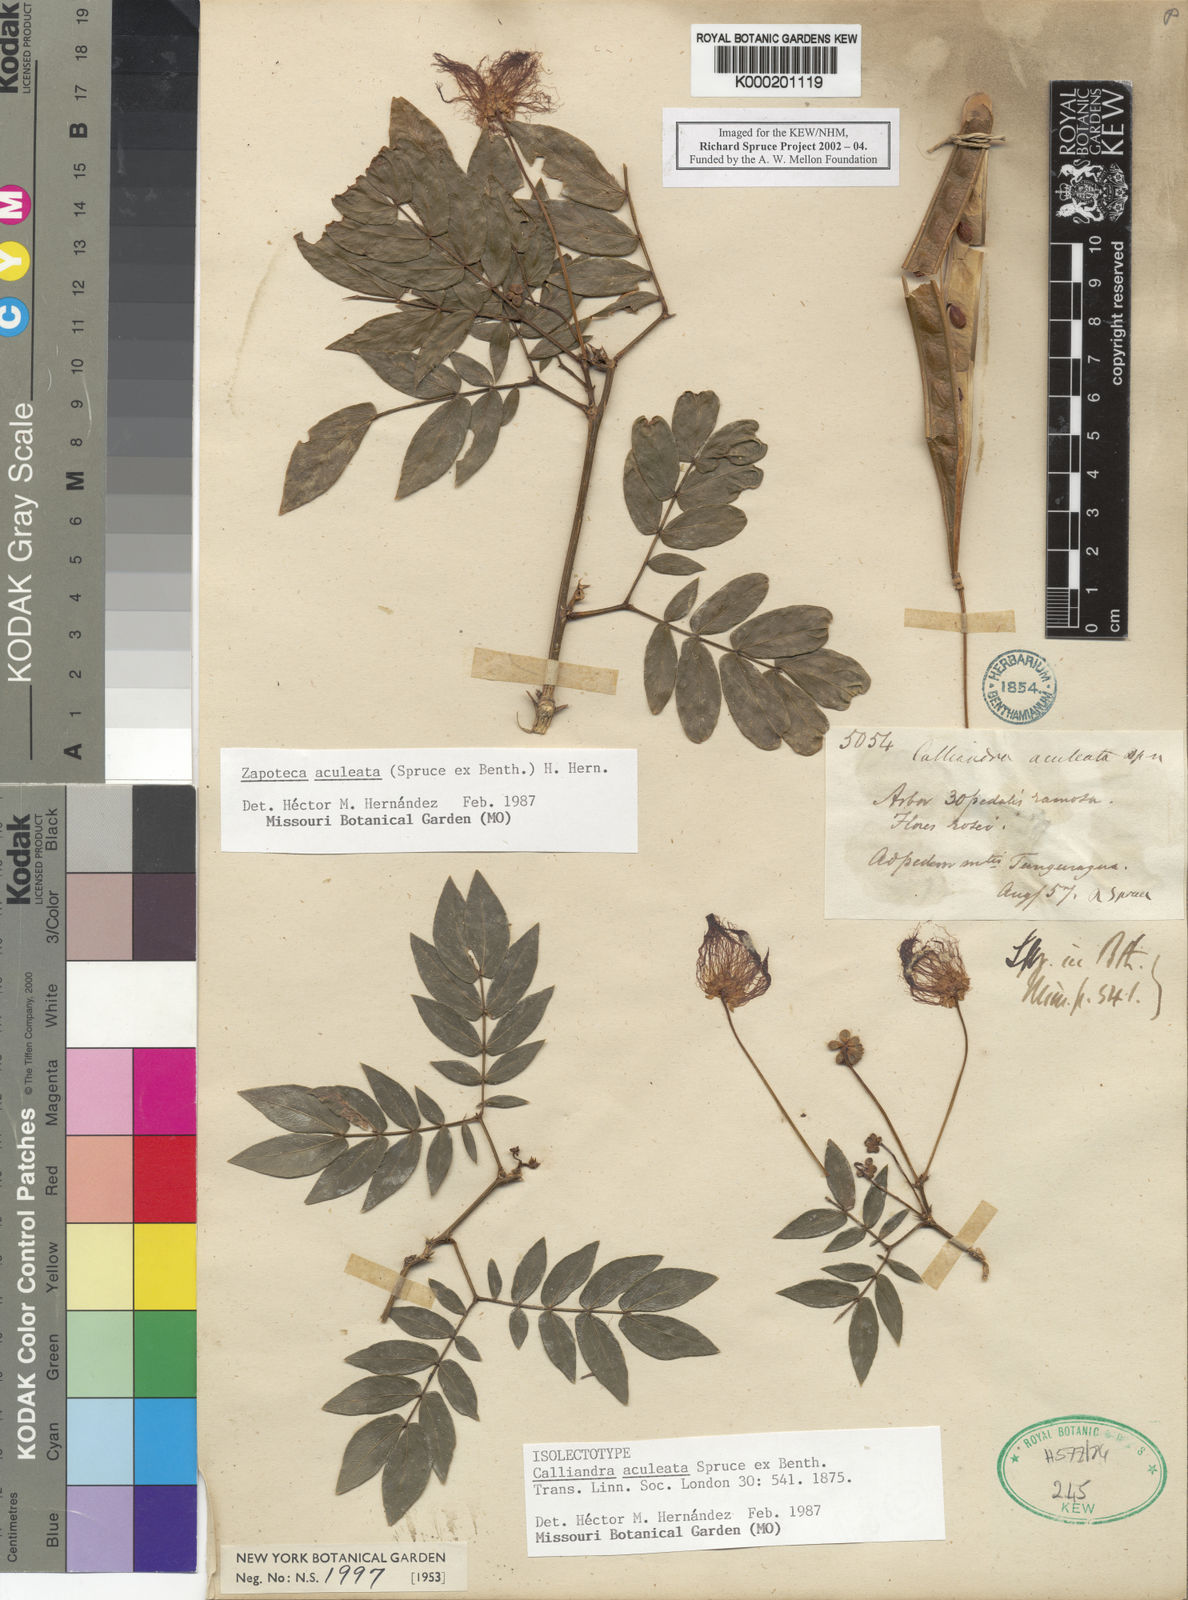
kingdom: Plantae
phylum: Tracheophyta
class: Magnoliopsida
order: Fabales
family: Fabaceae
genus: Zapoteca
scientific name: Zapoteca aculeata
